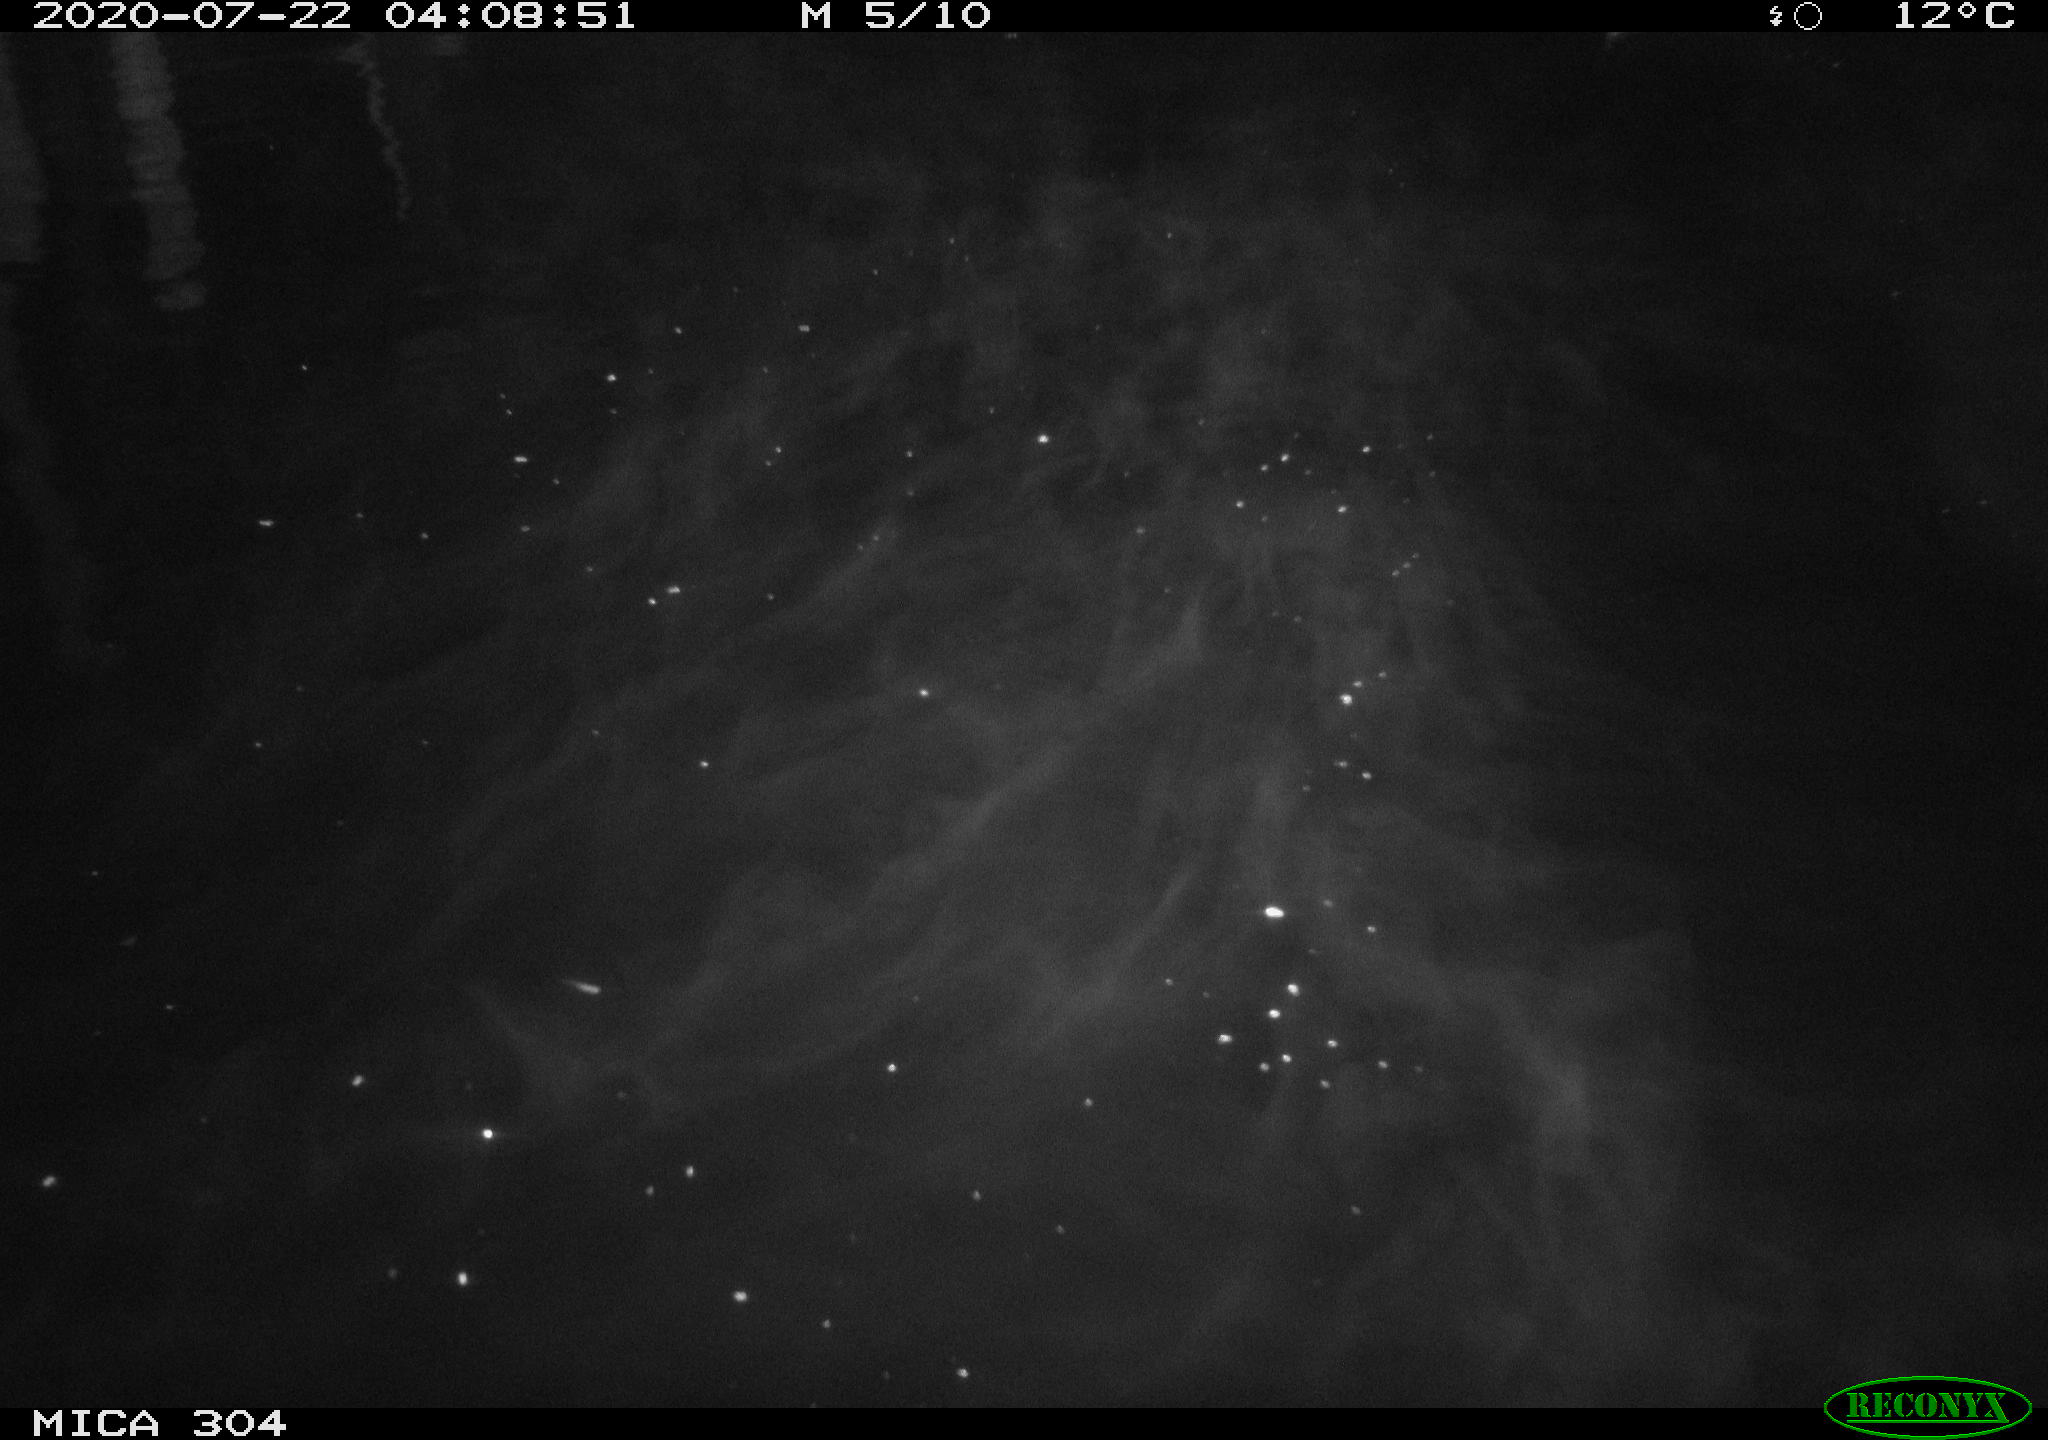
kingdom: Animalia
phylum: Chordata
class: Mammalia
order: Rodentia
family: Cricetidae
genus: Ondatra
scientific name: Ondatra zibethicus
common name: Muskrat
